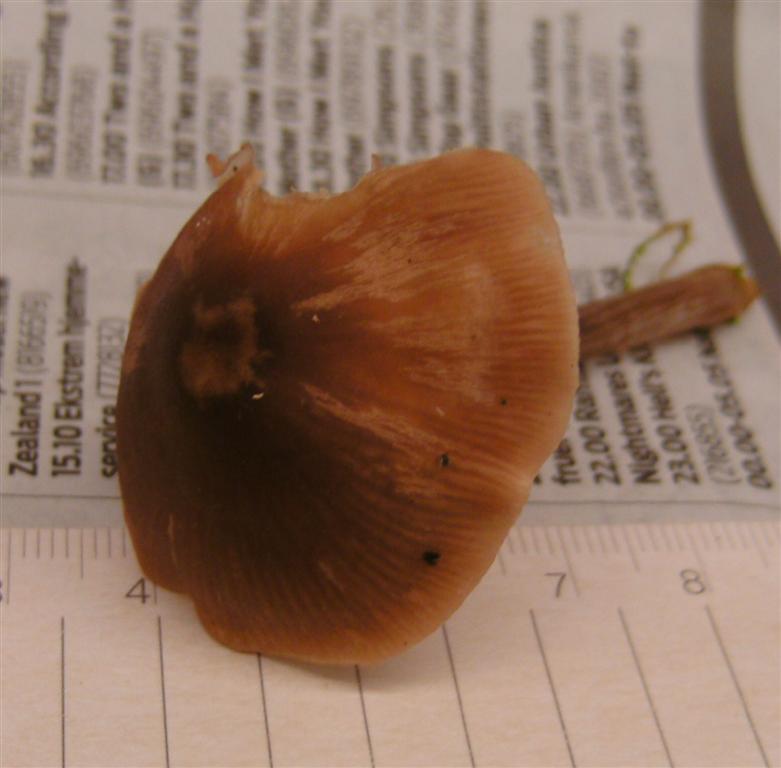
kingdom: Fungi
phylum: Basidiomycota
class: Agaricomycetes
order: Agaricales
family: Entolomataceae
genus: Entoloma
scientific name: Entoloma cetratum
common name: voks-rødblad
